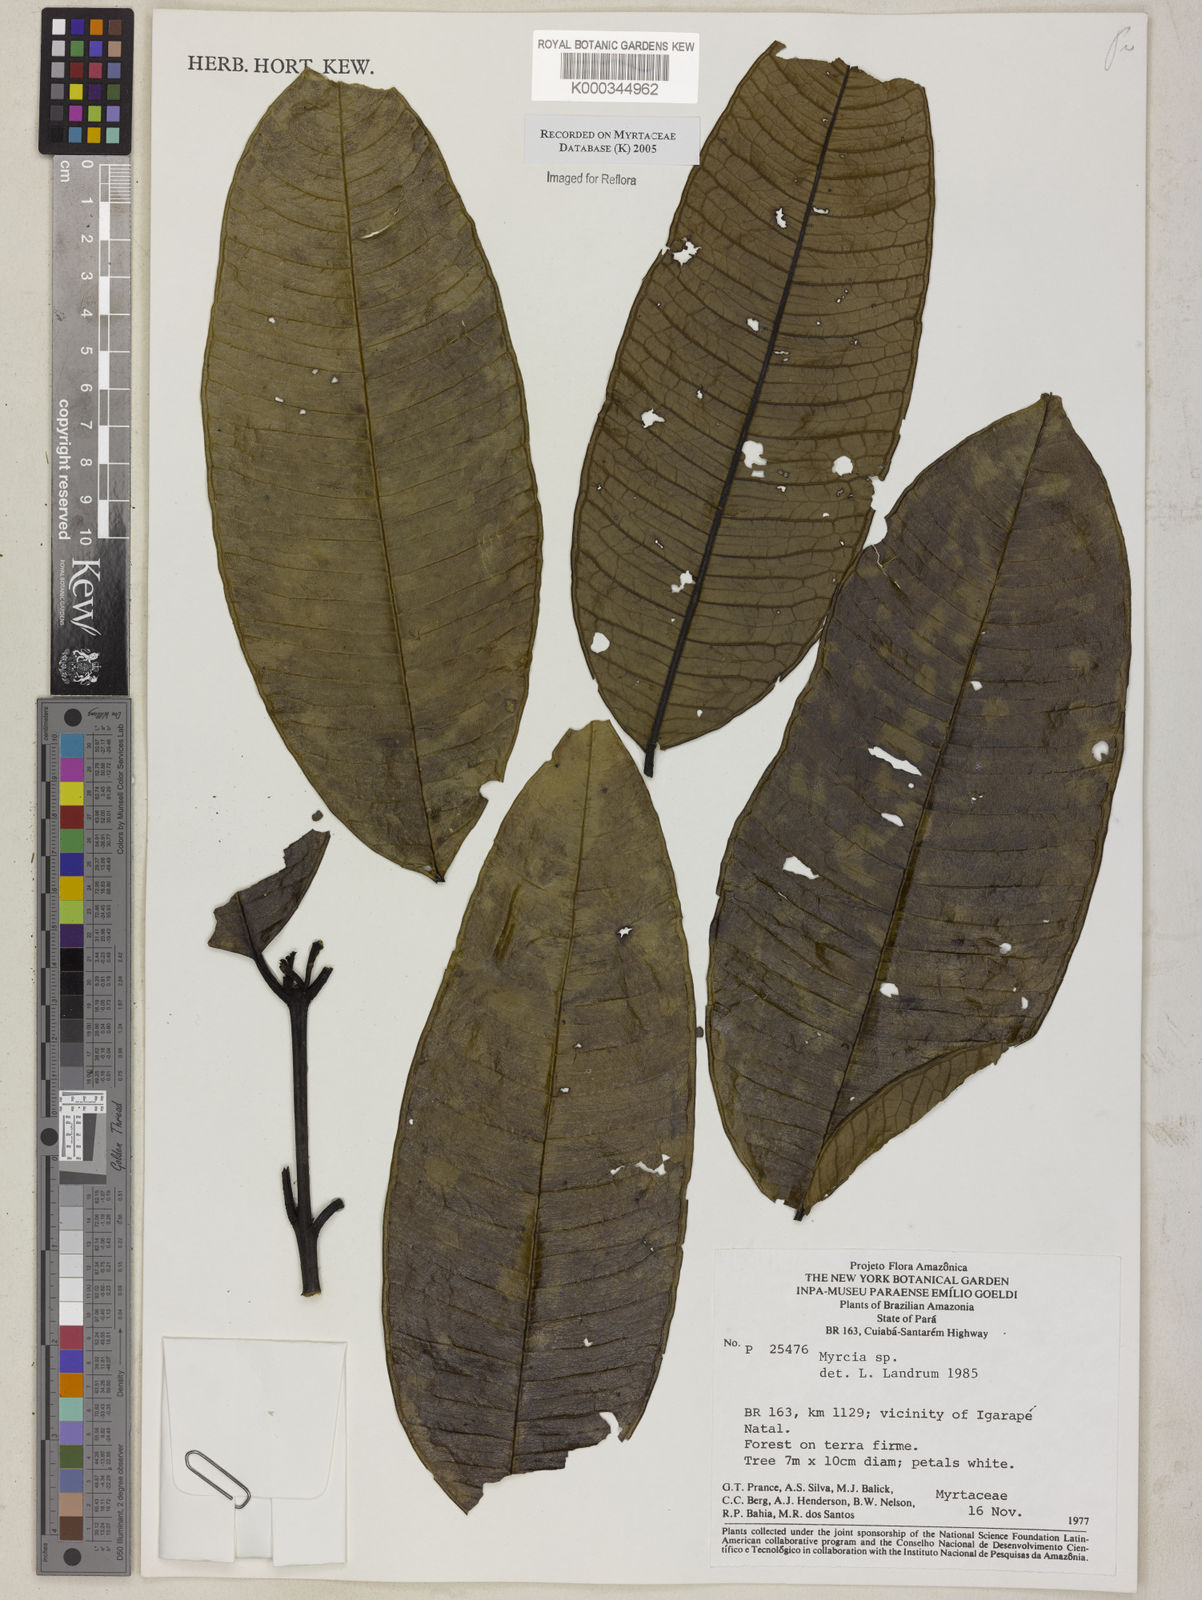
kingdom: Plantae
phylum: Tracheophyta
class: Magnoliopsida
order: Myrtales
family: Myrtaceae
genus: Myrcia
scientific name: Myrcia
